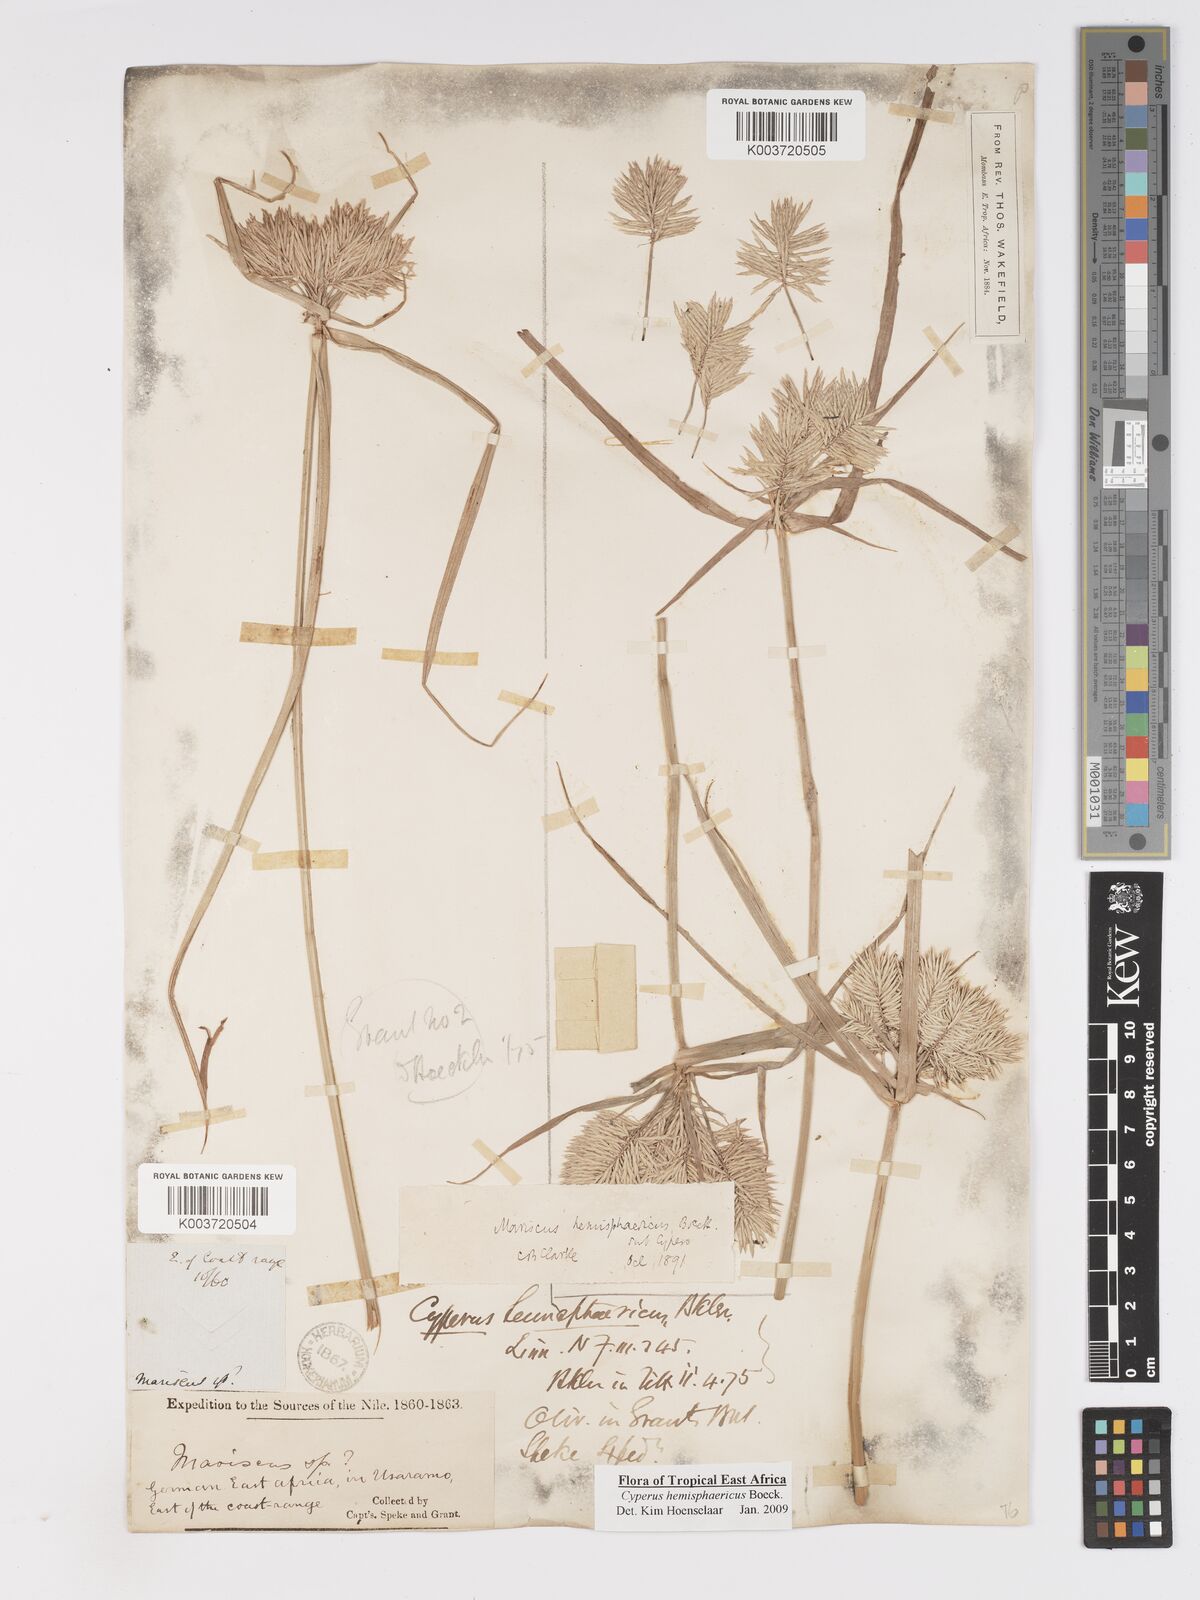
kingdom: Plantae
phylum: Tracheophyta
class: Liliopsida
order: Poales
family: Cyperaceae
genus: Cyperus
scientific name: Cyperus hemisphaericus
